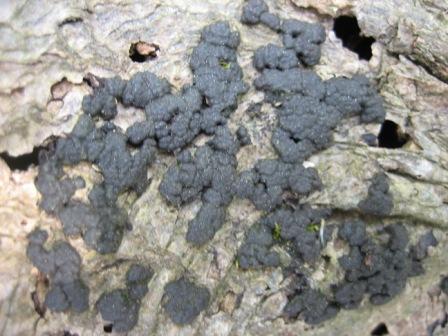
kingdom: Fungi
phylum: Ascomycota
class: Sordariomycetes
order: Xylariales
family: Hypoxylaceae
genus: Jackrogersella
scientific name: Jackrogersella cohaerens
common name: sammenflydende kulbær
